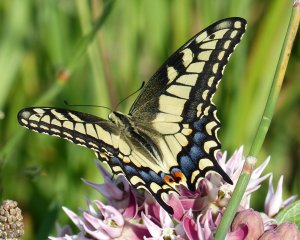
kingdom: Animalia
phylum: Arthropoda
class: Insecta
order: Lepidoptera
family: Papilionidae
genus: Papilio
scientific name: Papilio machaon
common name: Old World Swallowtail
